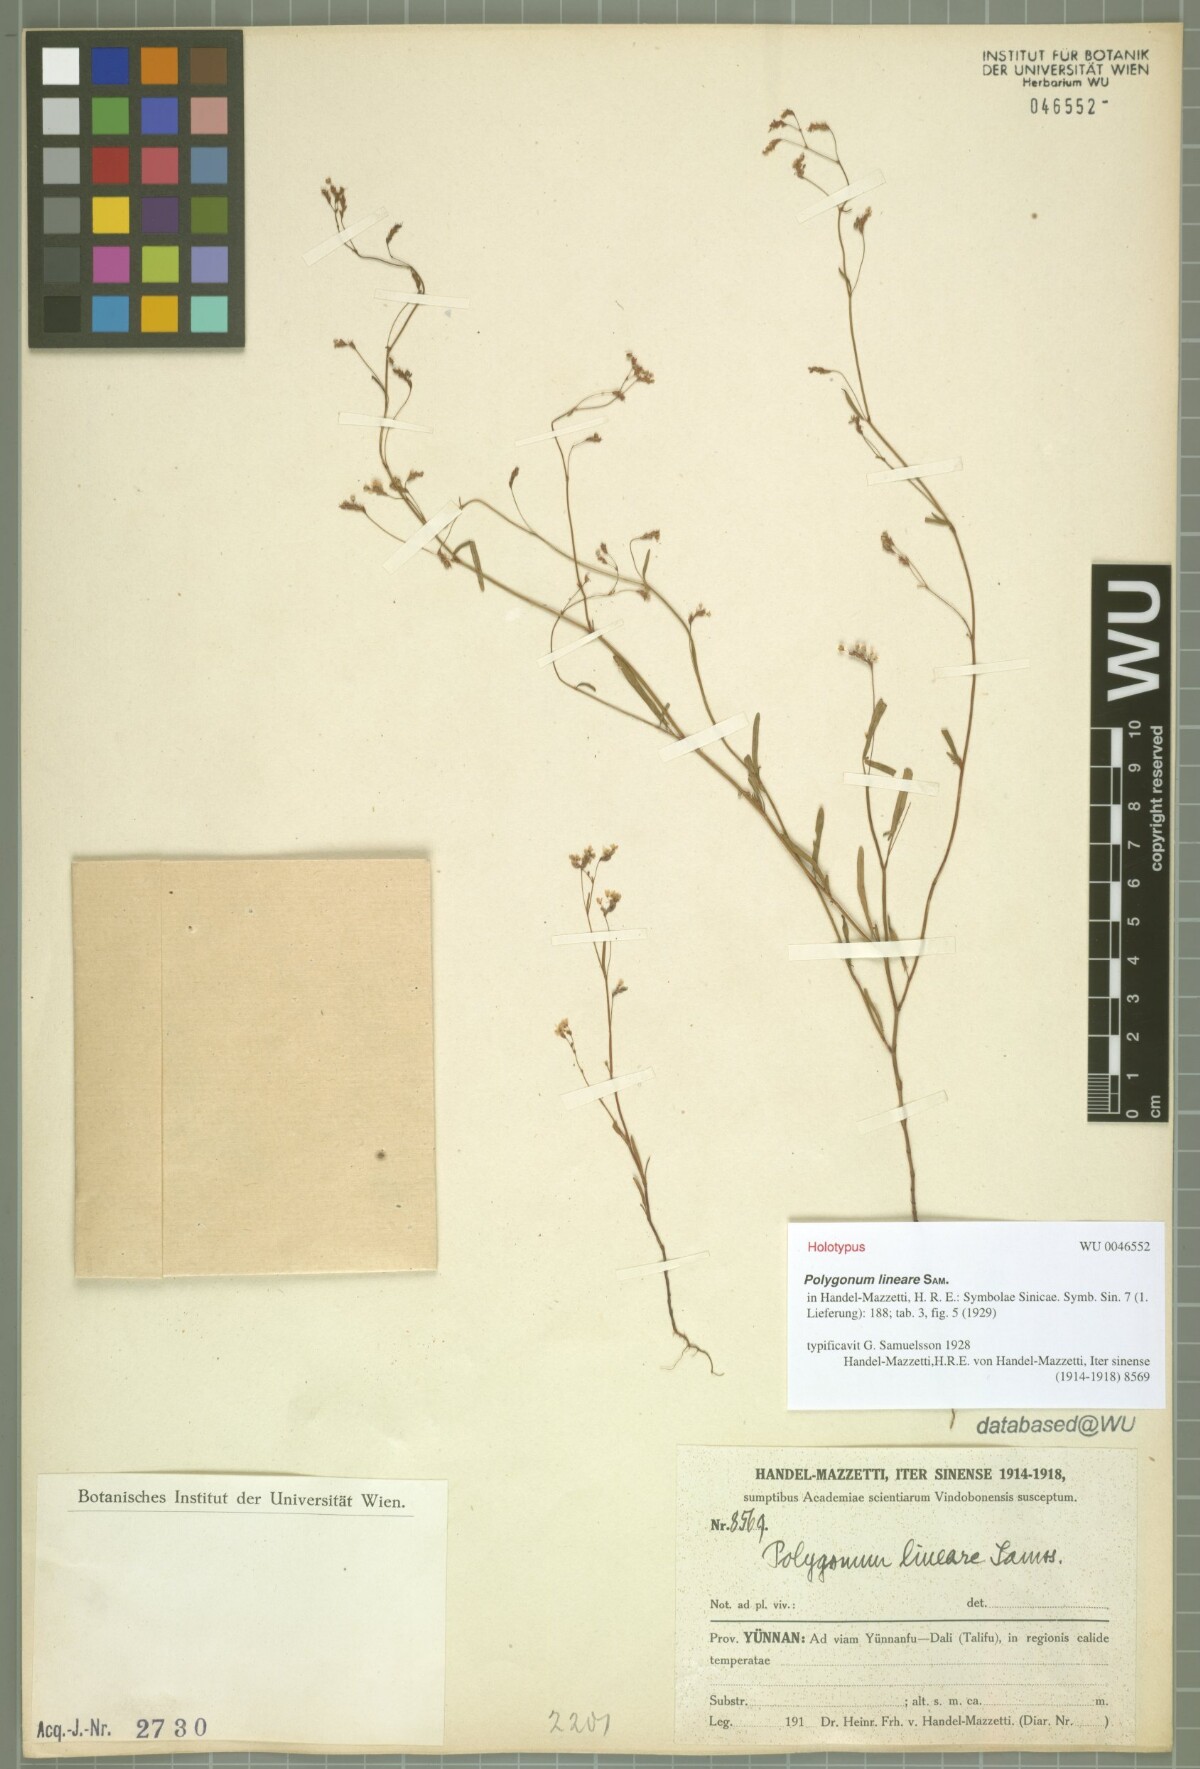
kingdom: Plantae
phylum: Tracheophyta
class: Magnoliopsida
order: Caryophyllales
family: Polygonaceae
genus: Fagopyrum
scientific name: Fagopyrum lineare
